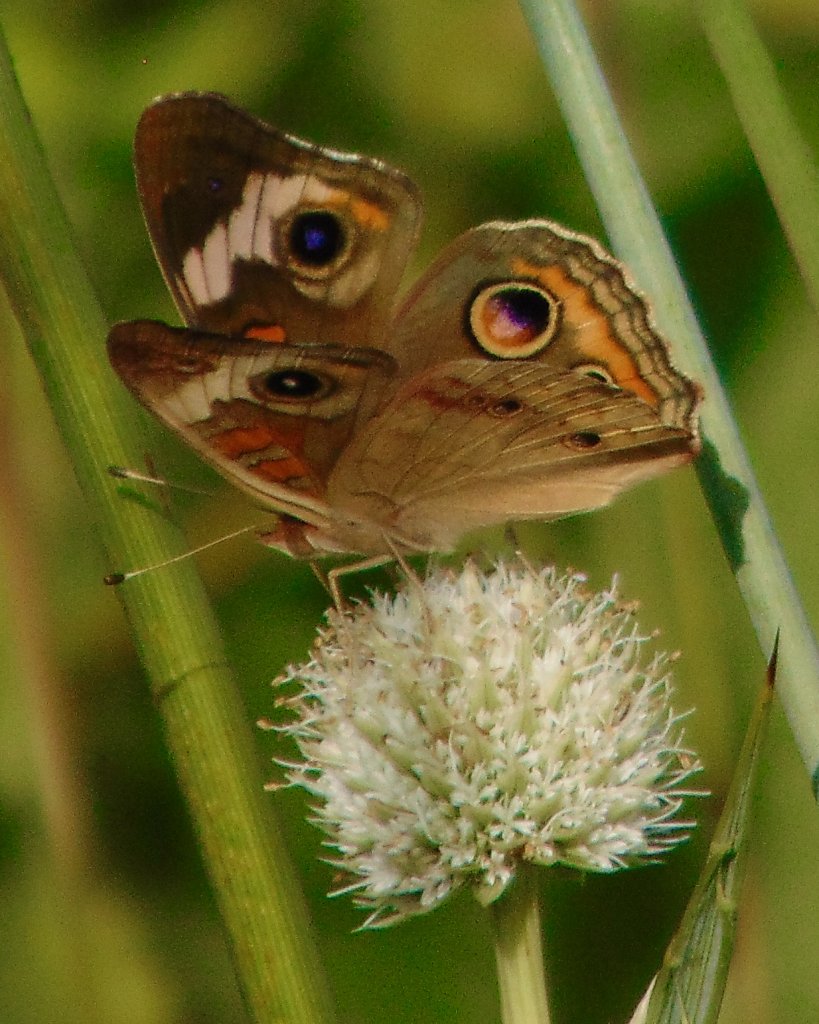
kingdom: Animalia
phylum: Arthropoda
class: Insecta
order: Lepidoptera
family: Nymphalidae
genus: Junonia
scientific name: Junonia coenia
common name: Common Buckeye
